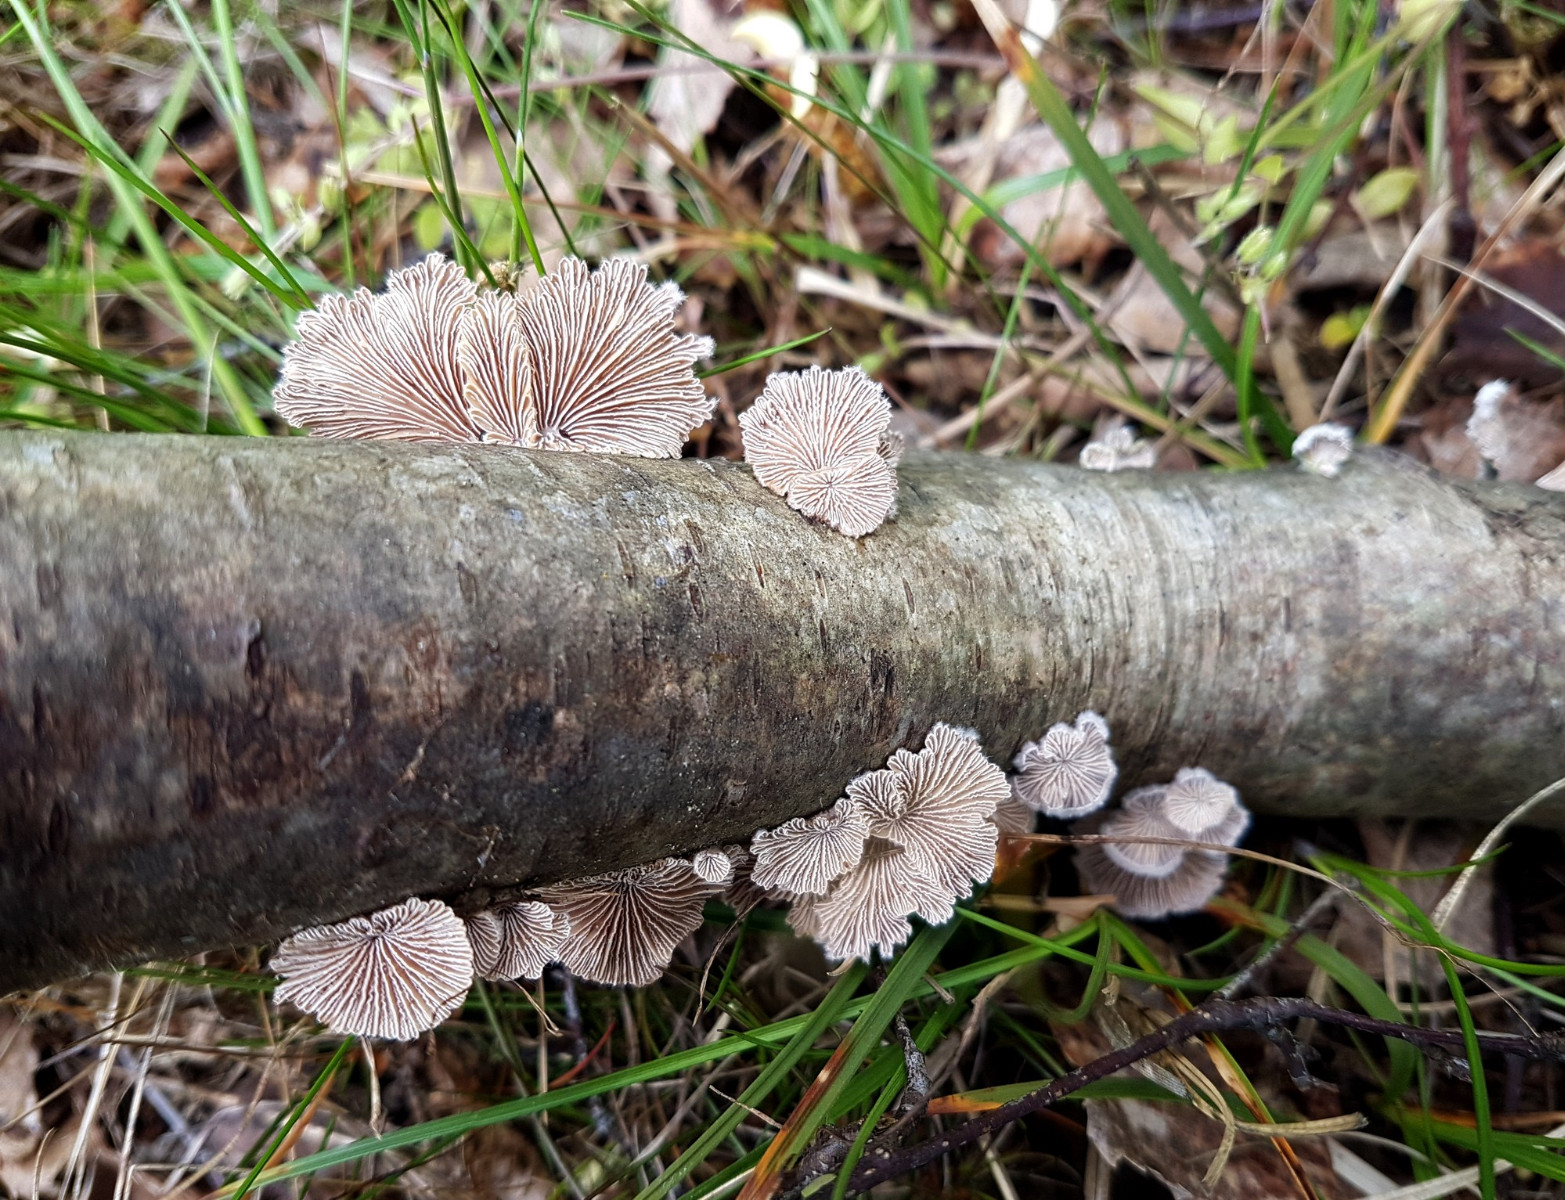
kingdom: Fungi
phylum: Basidiomycota
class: Agaricomycetes
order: Agaricales
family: Schizophyllaceae
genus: Schizophyllum
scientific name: Schizophyllum commune
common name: kløvblad
